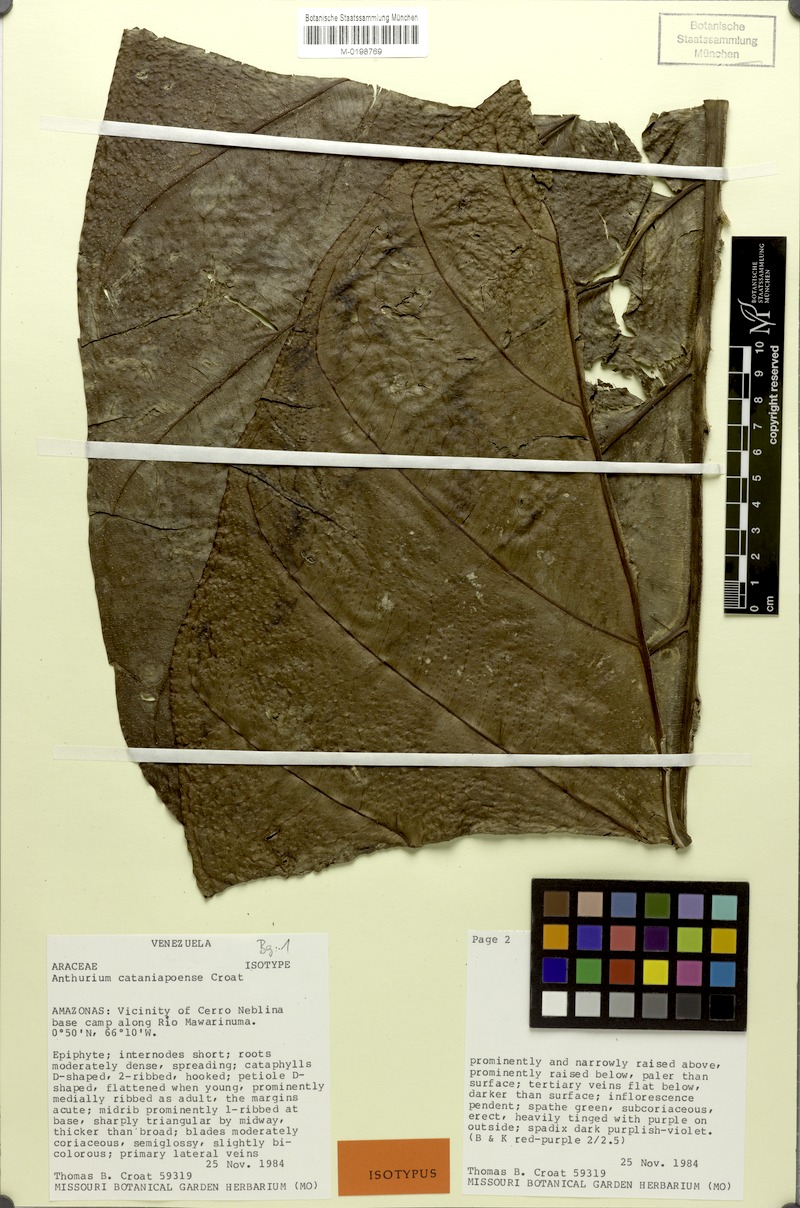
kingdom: Plantae
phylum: Tracheophyta
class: Liliopsida
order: Alismatales
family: Araceae
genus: Anthurium
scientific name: Anthurium cataniapoense
